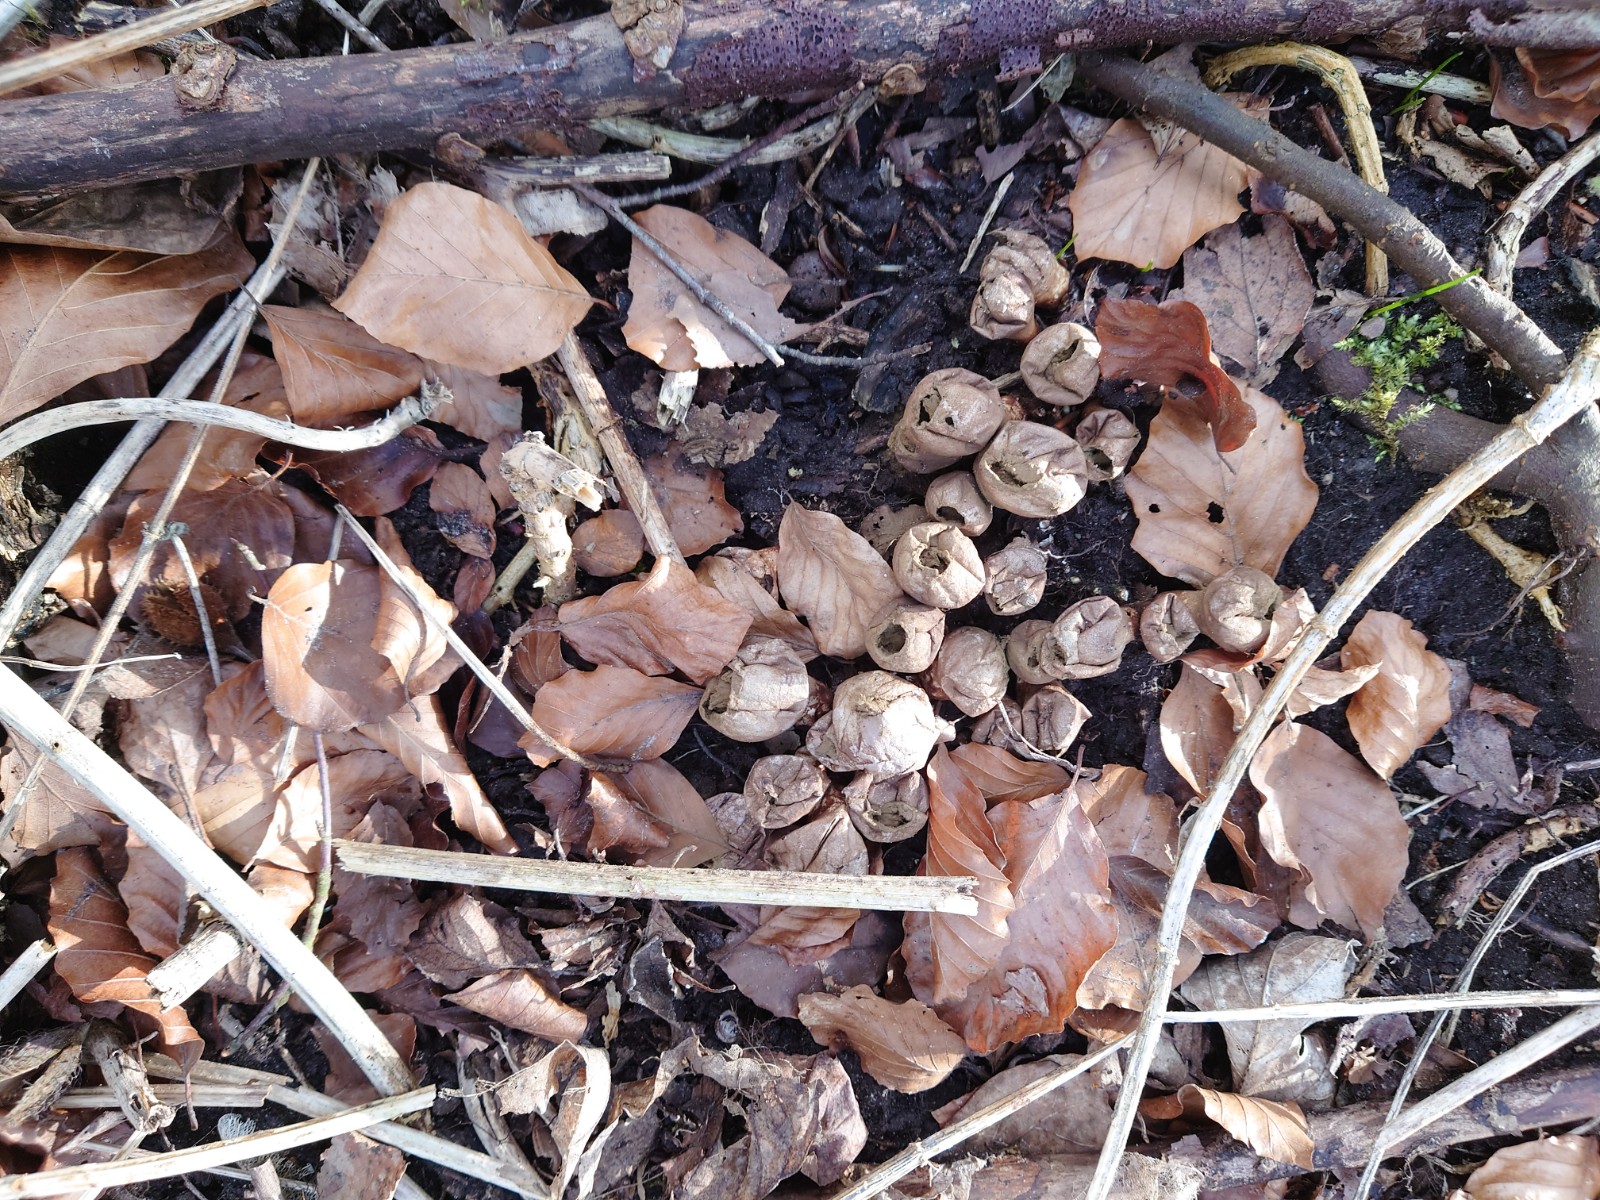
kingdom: Fungi
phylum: Basidiomycota
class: Agaricomycetes
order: Agaricales
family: Lycoperdaceae
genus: Apioperdon
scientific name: Apioperdon pyriforme
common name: pære-støvbold
